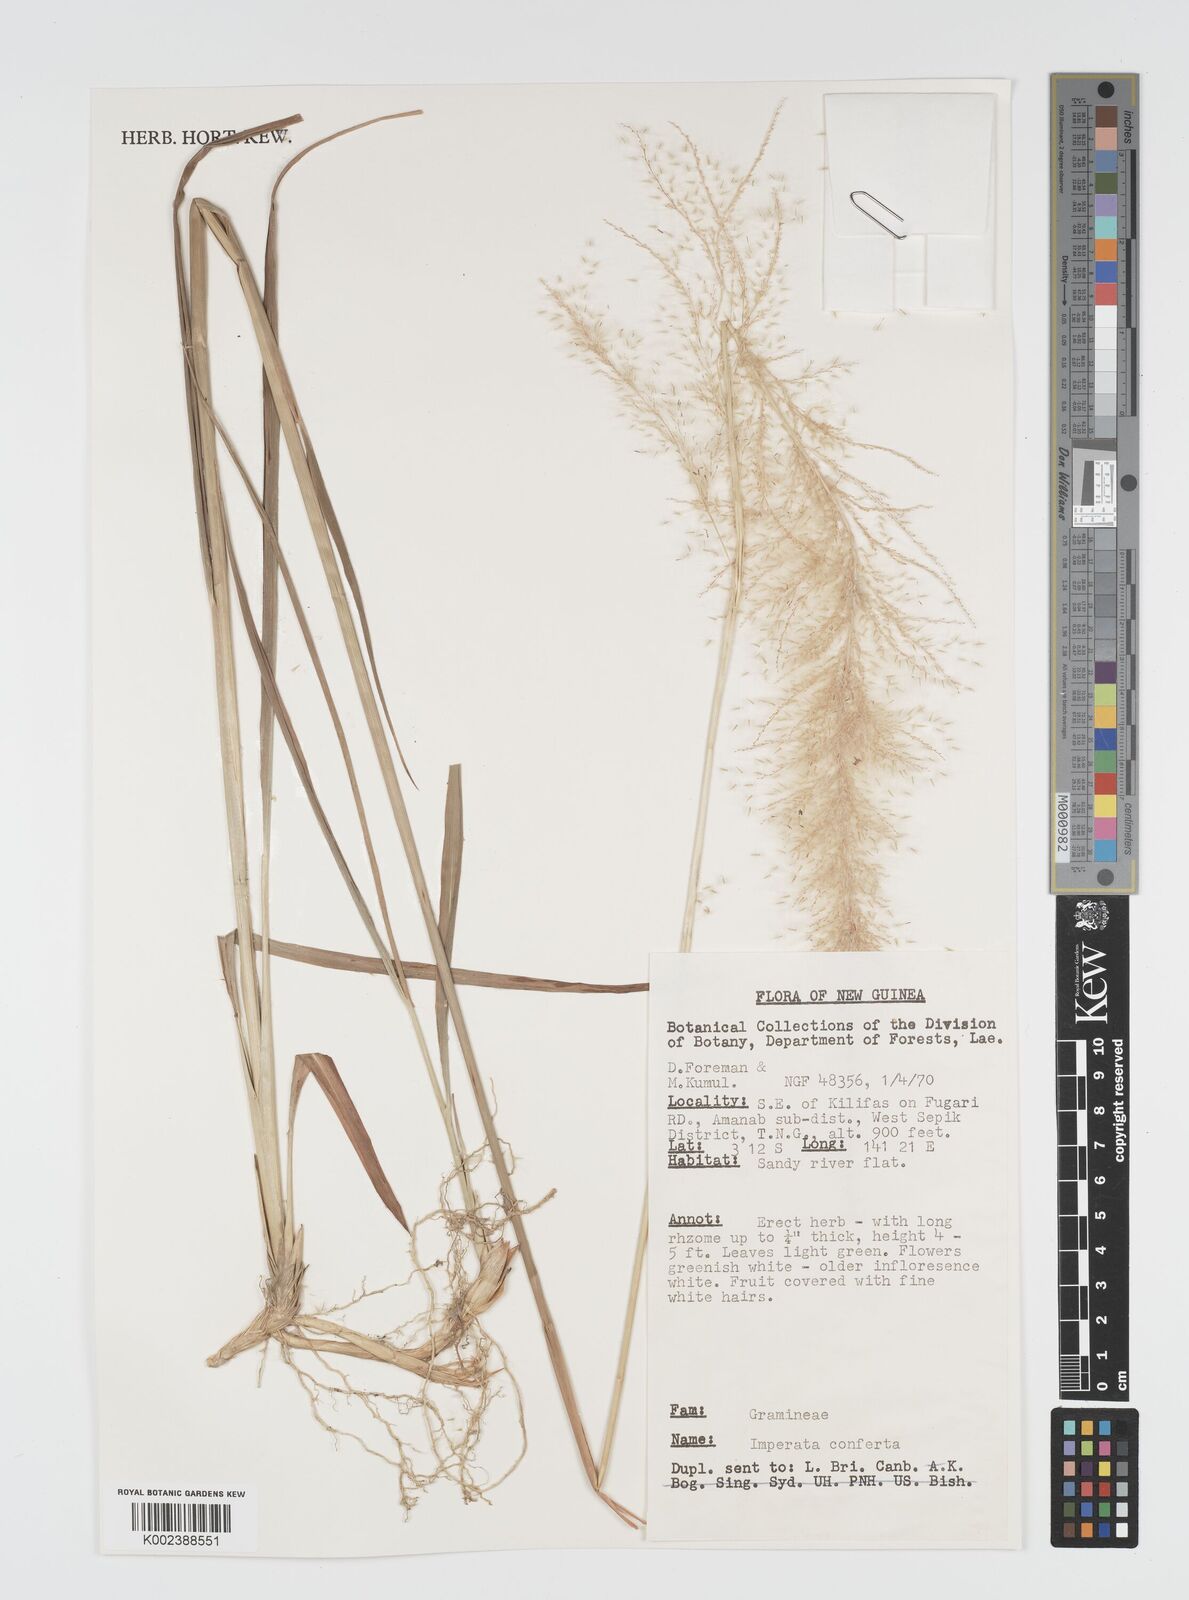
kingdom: Plantae
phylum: Tracheophyta
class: Liliopsida
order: Poales
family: Poaceae
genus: Imperata
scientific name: Imperata conferta
